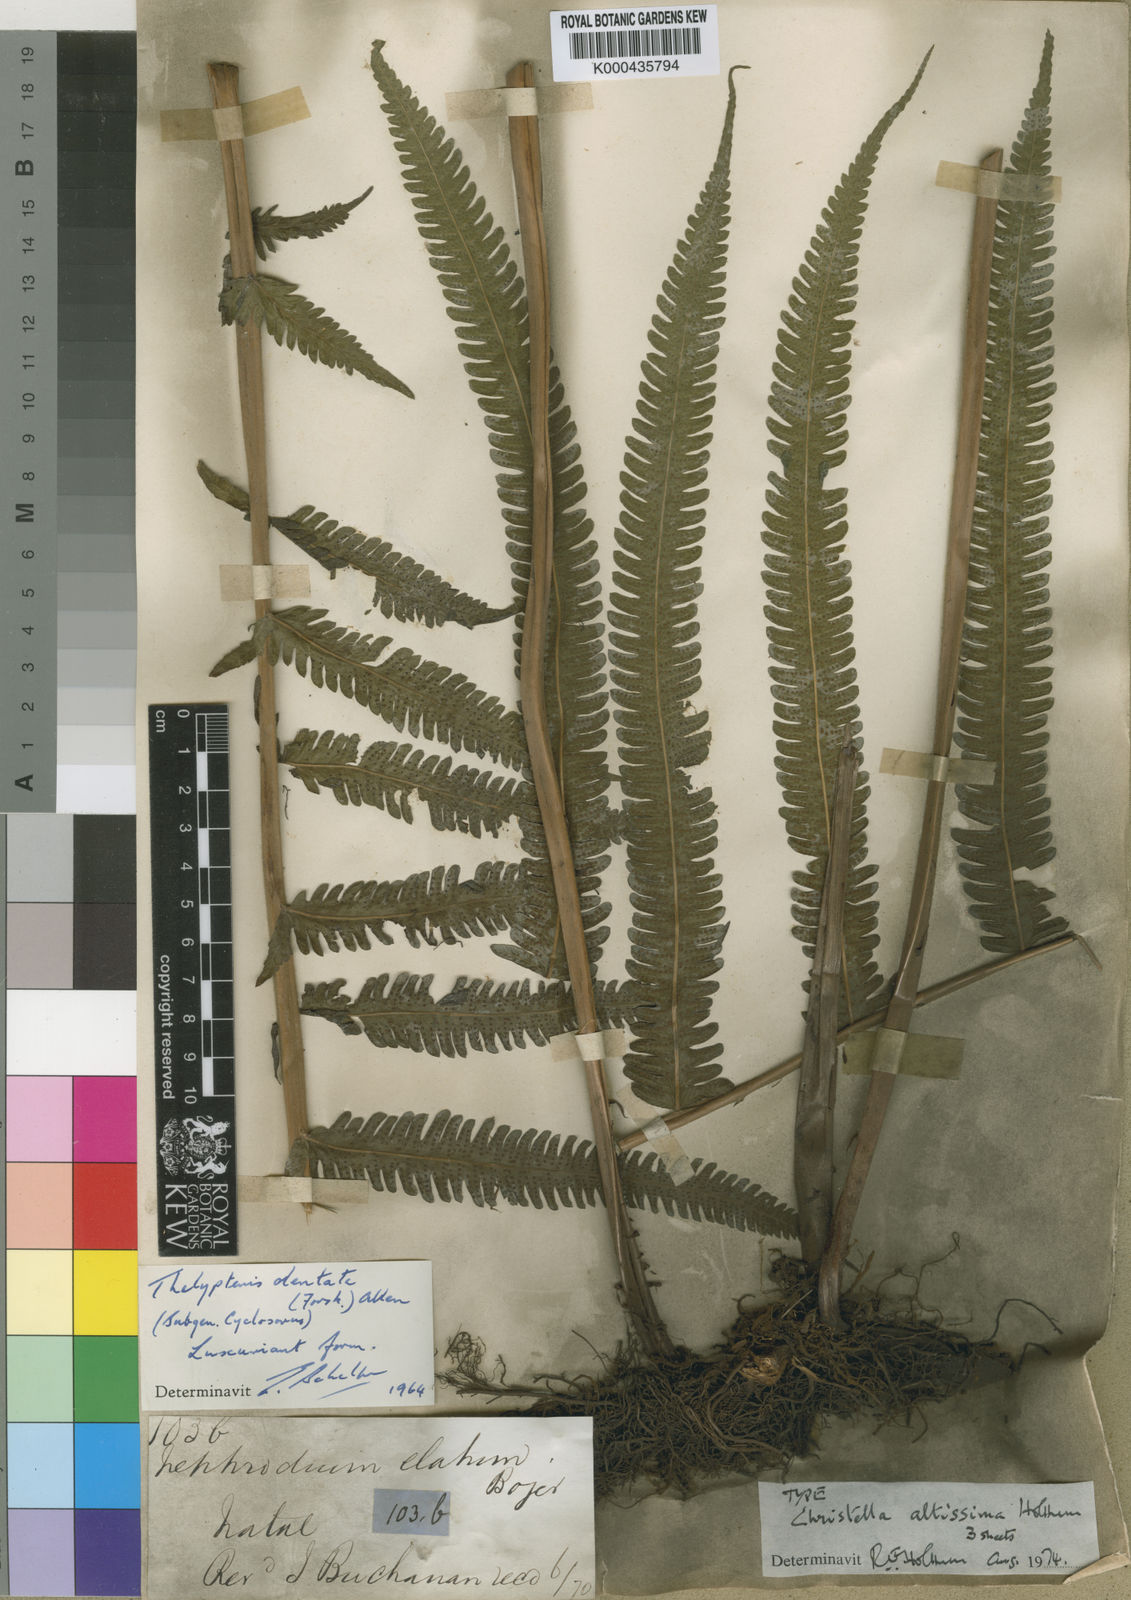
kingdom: Plantae
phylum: Tracheophyta
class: Polypodiopsida
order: Polypodiales
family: Thelypteridaceae
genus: Christella
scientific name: Christella altissima
